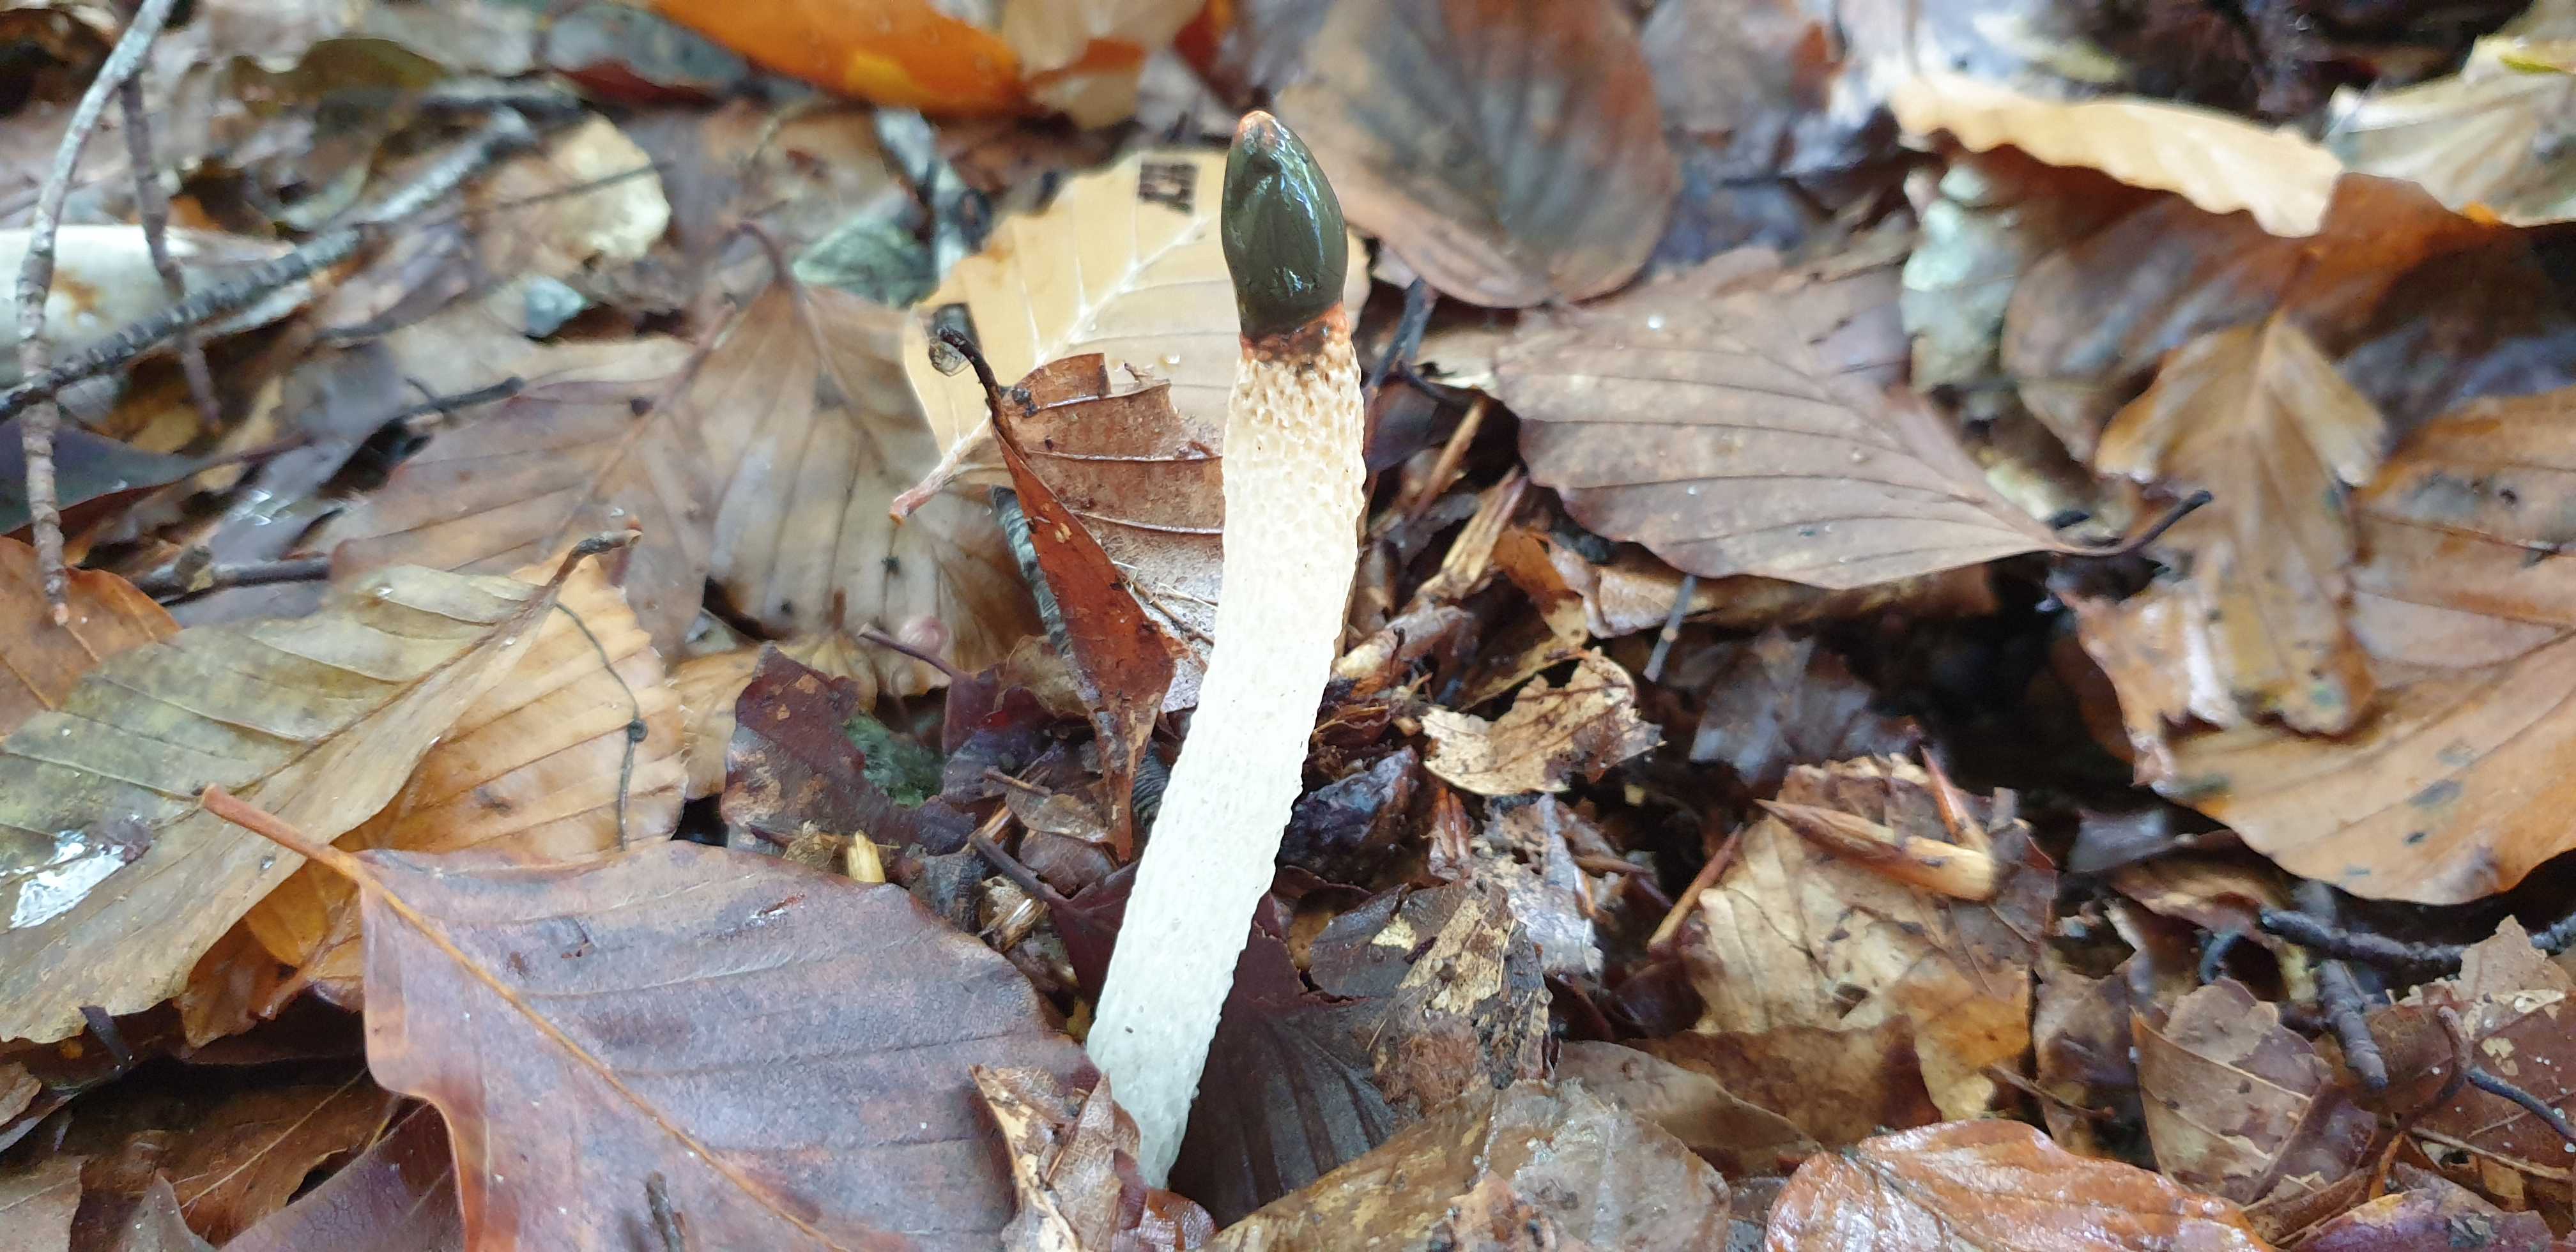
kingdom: Fungi
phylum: Basidiomycota
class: Agaricomycetes
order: Phallales
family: Phallaceae
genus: Mutinus
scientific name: Mutinus caninus
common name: hunde-stinksvamp
